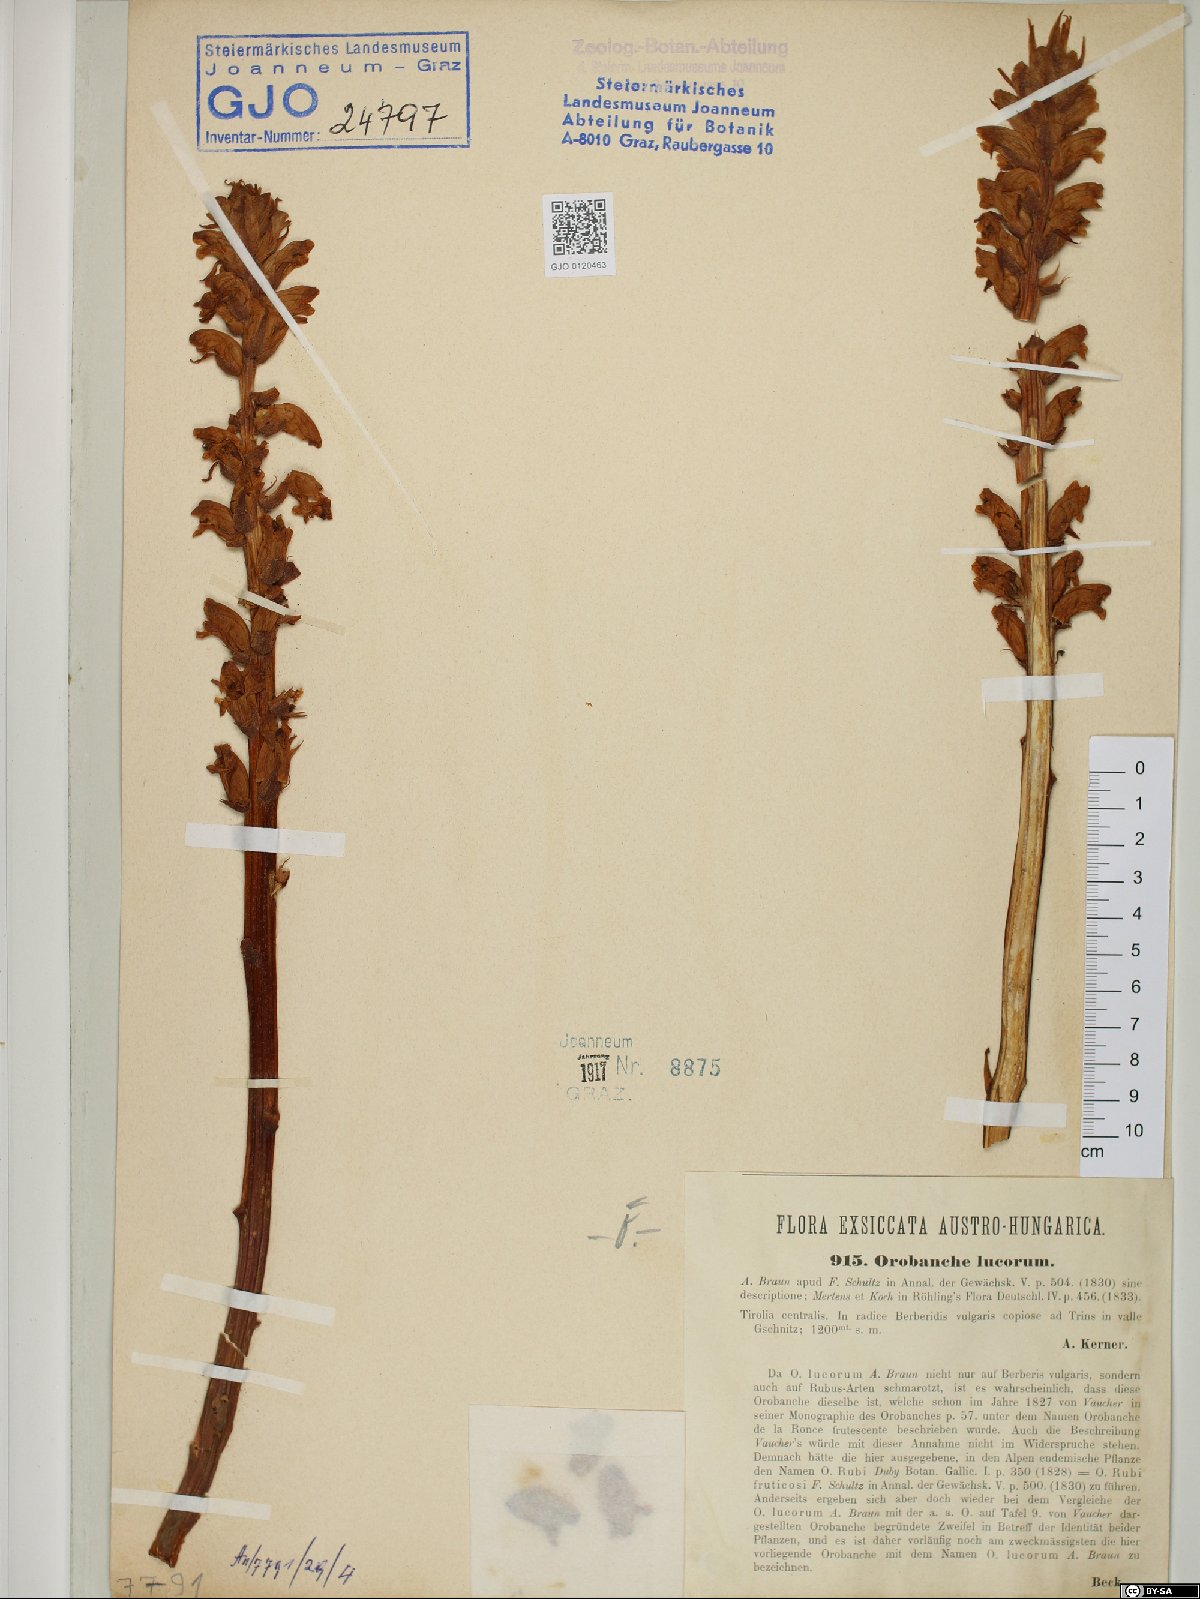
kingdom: Plantae
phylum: Tracheophyta
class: Magnoliopsida
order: Lamiales
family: Orobanchaceae
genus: Orobanche
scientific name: Orobanche lucorum
